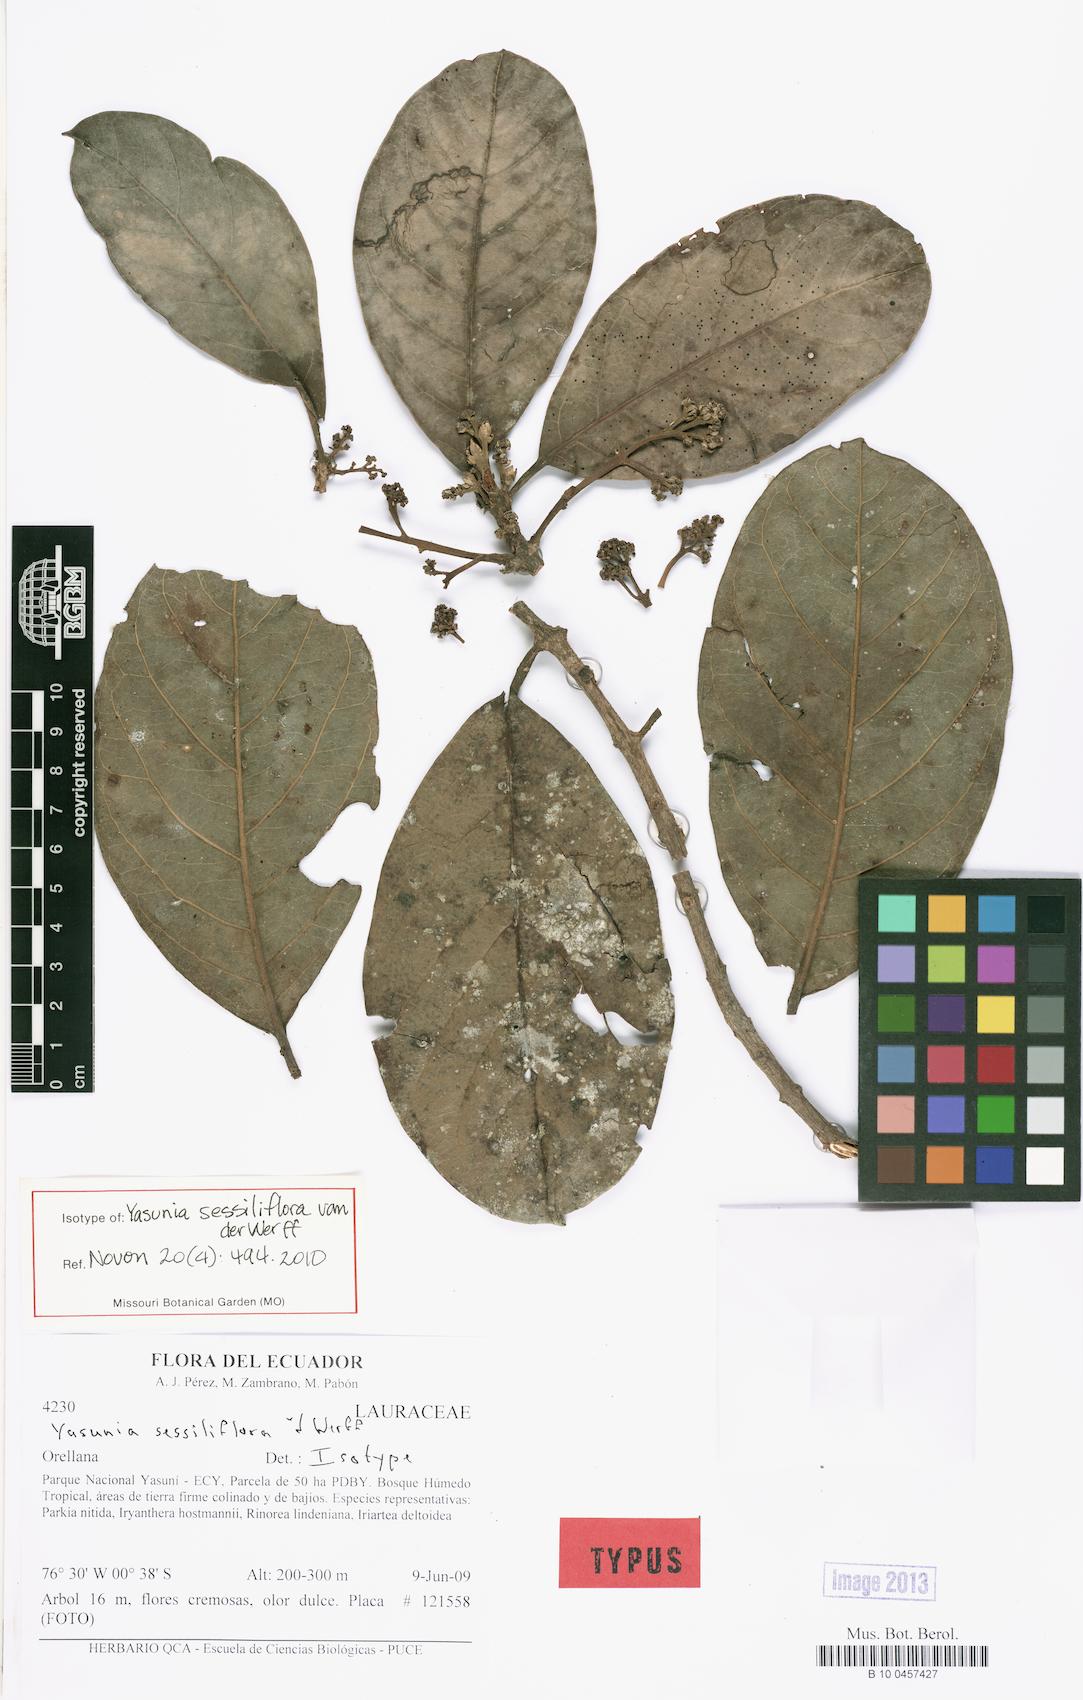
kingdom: Plantae
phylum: Tracheophyta
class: Magnoliopsida
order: Laurales
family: Lauraceae
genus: Yasunia
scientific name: Yasunia sessiliflora
